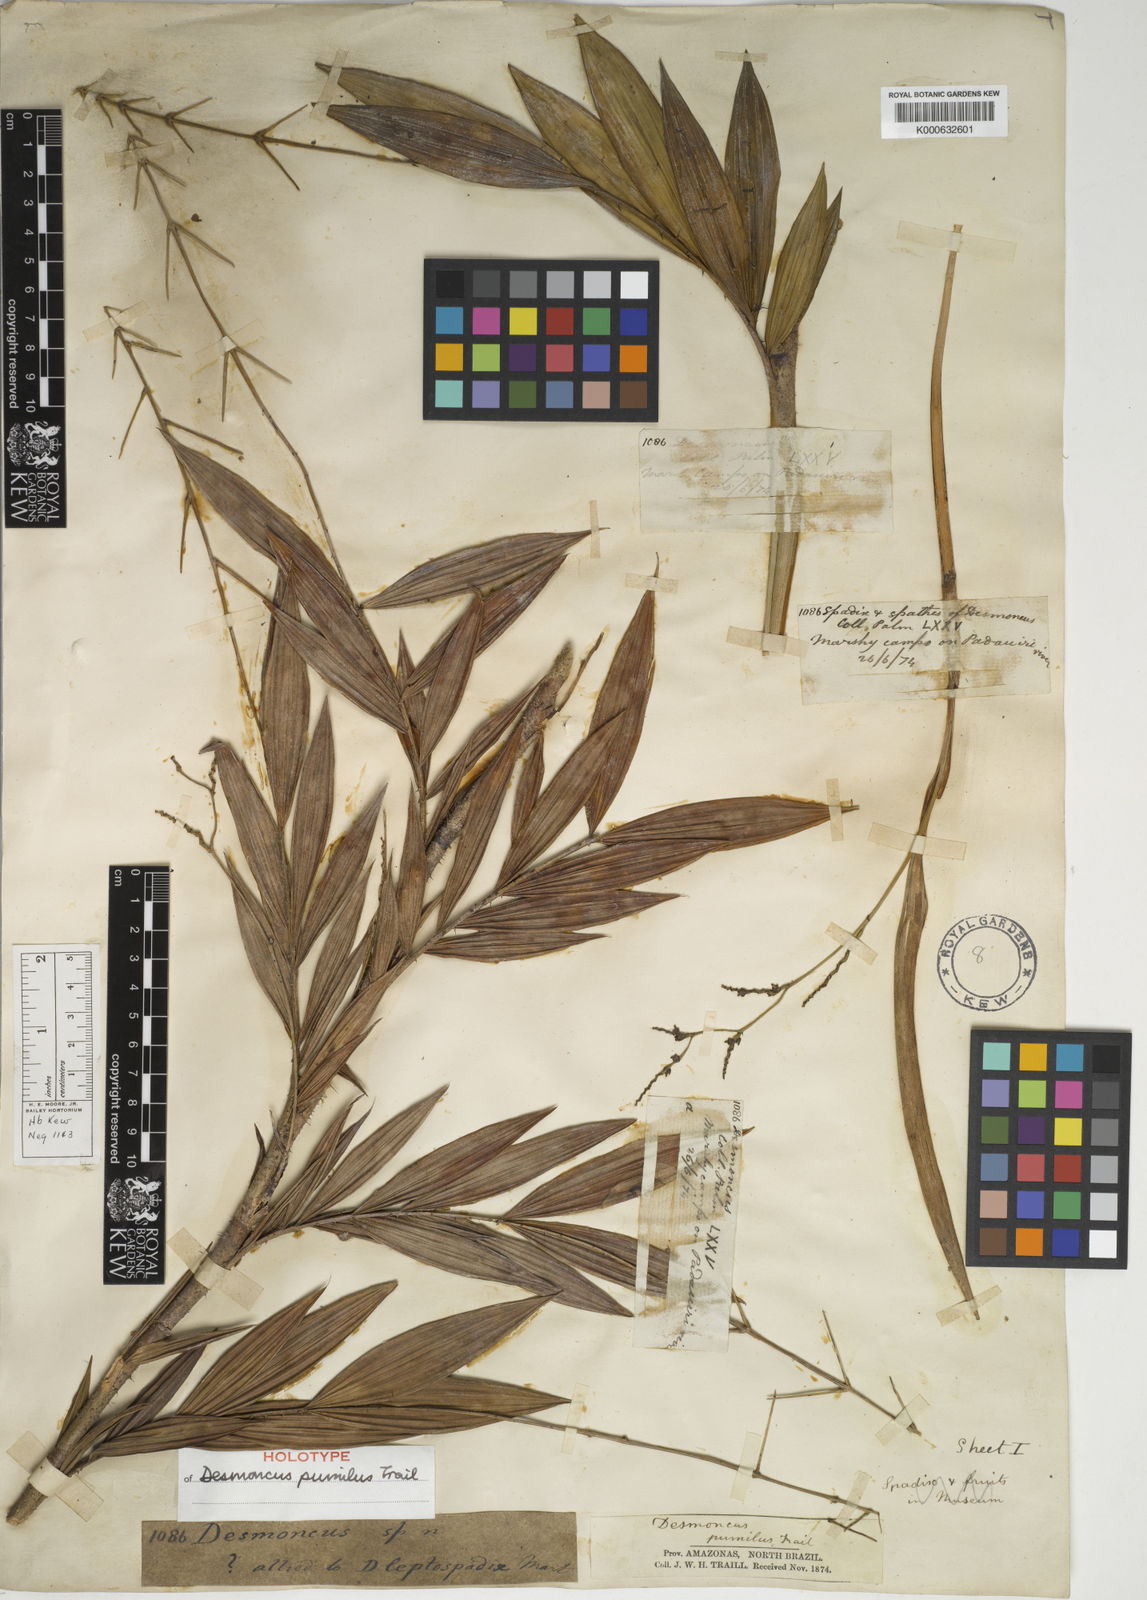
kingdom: Plantae
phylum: Tracheophyta
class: Liliopsida
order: Arecales
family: Arecaceae
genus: Desmoncus
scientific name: Desmoncus pumilus
